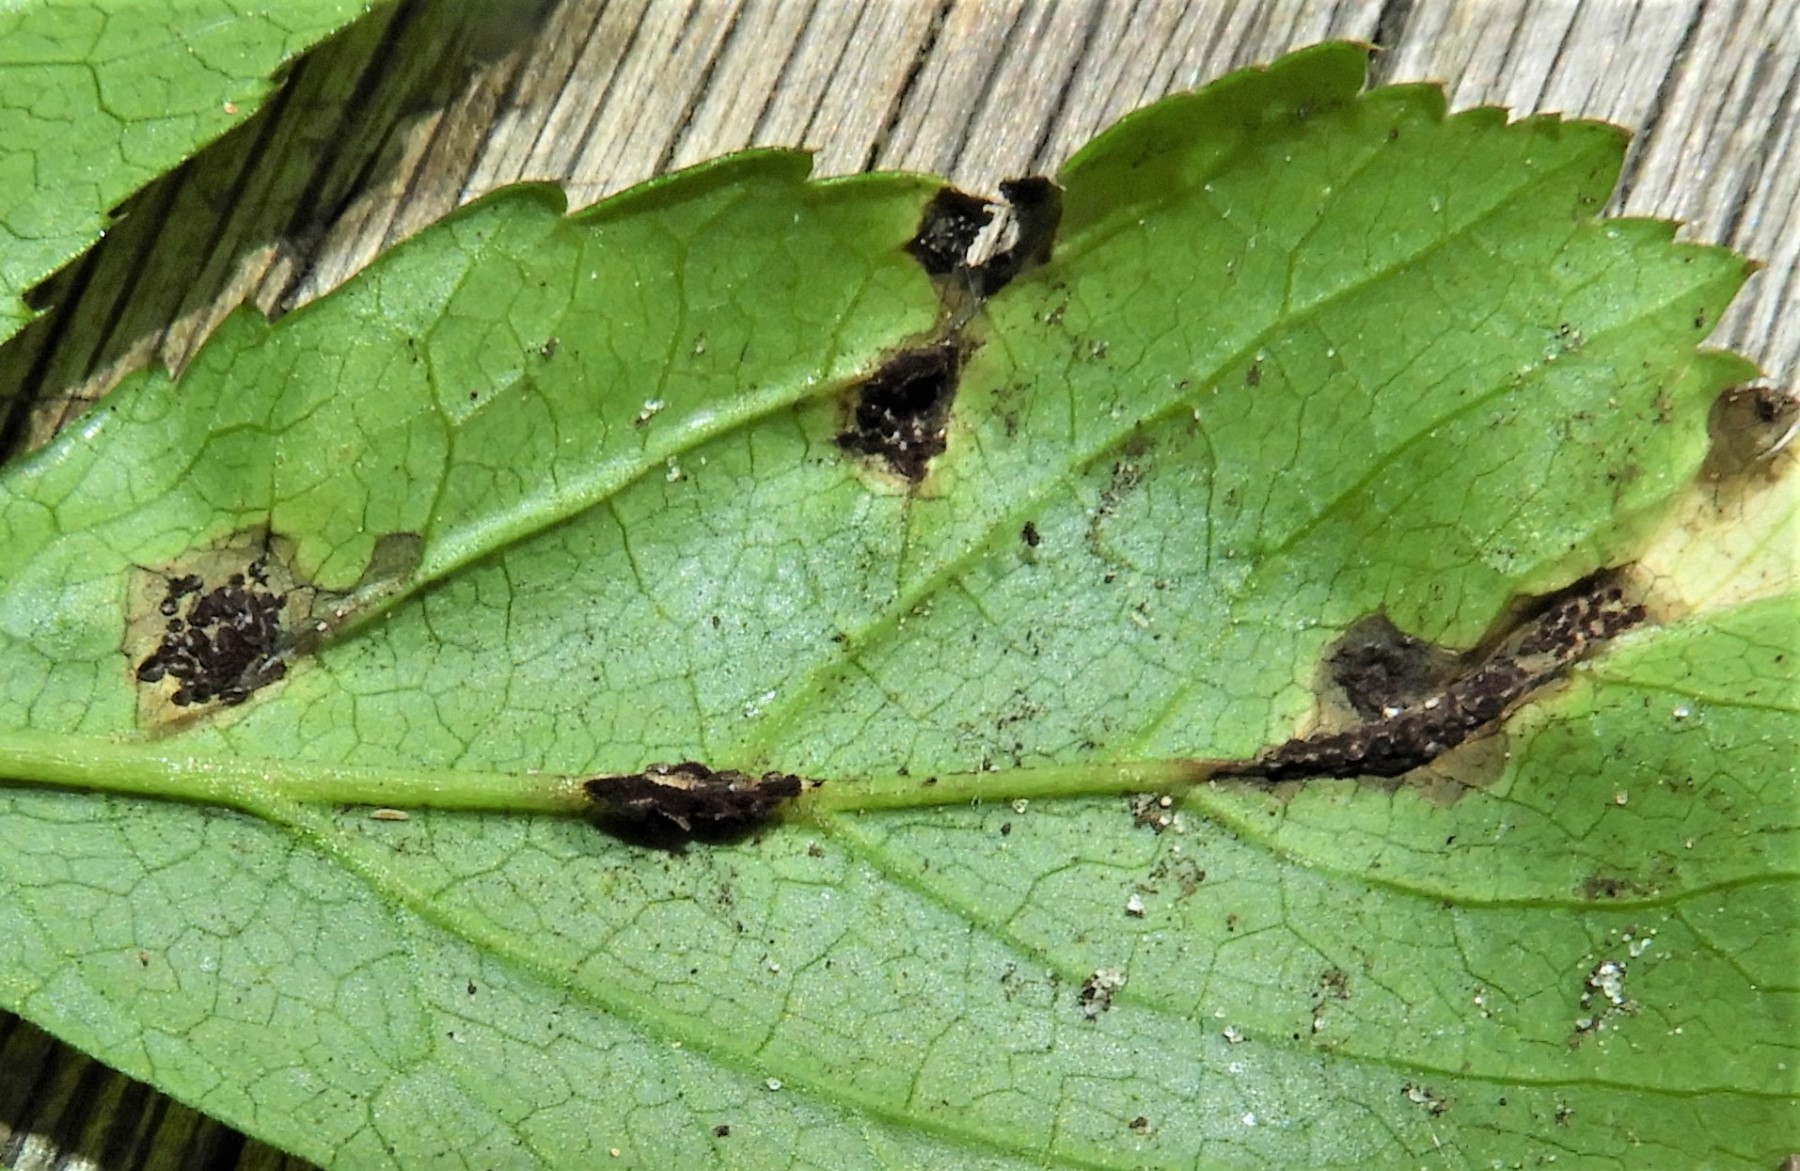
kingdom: Fungi
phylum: Basidiomycota
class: Pucciniomycetes
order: Pucciniales
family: Pucciniaceae
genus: Puccinia
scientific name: Puccinia
